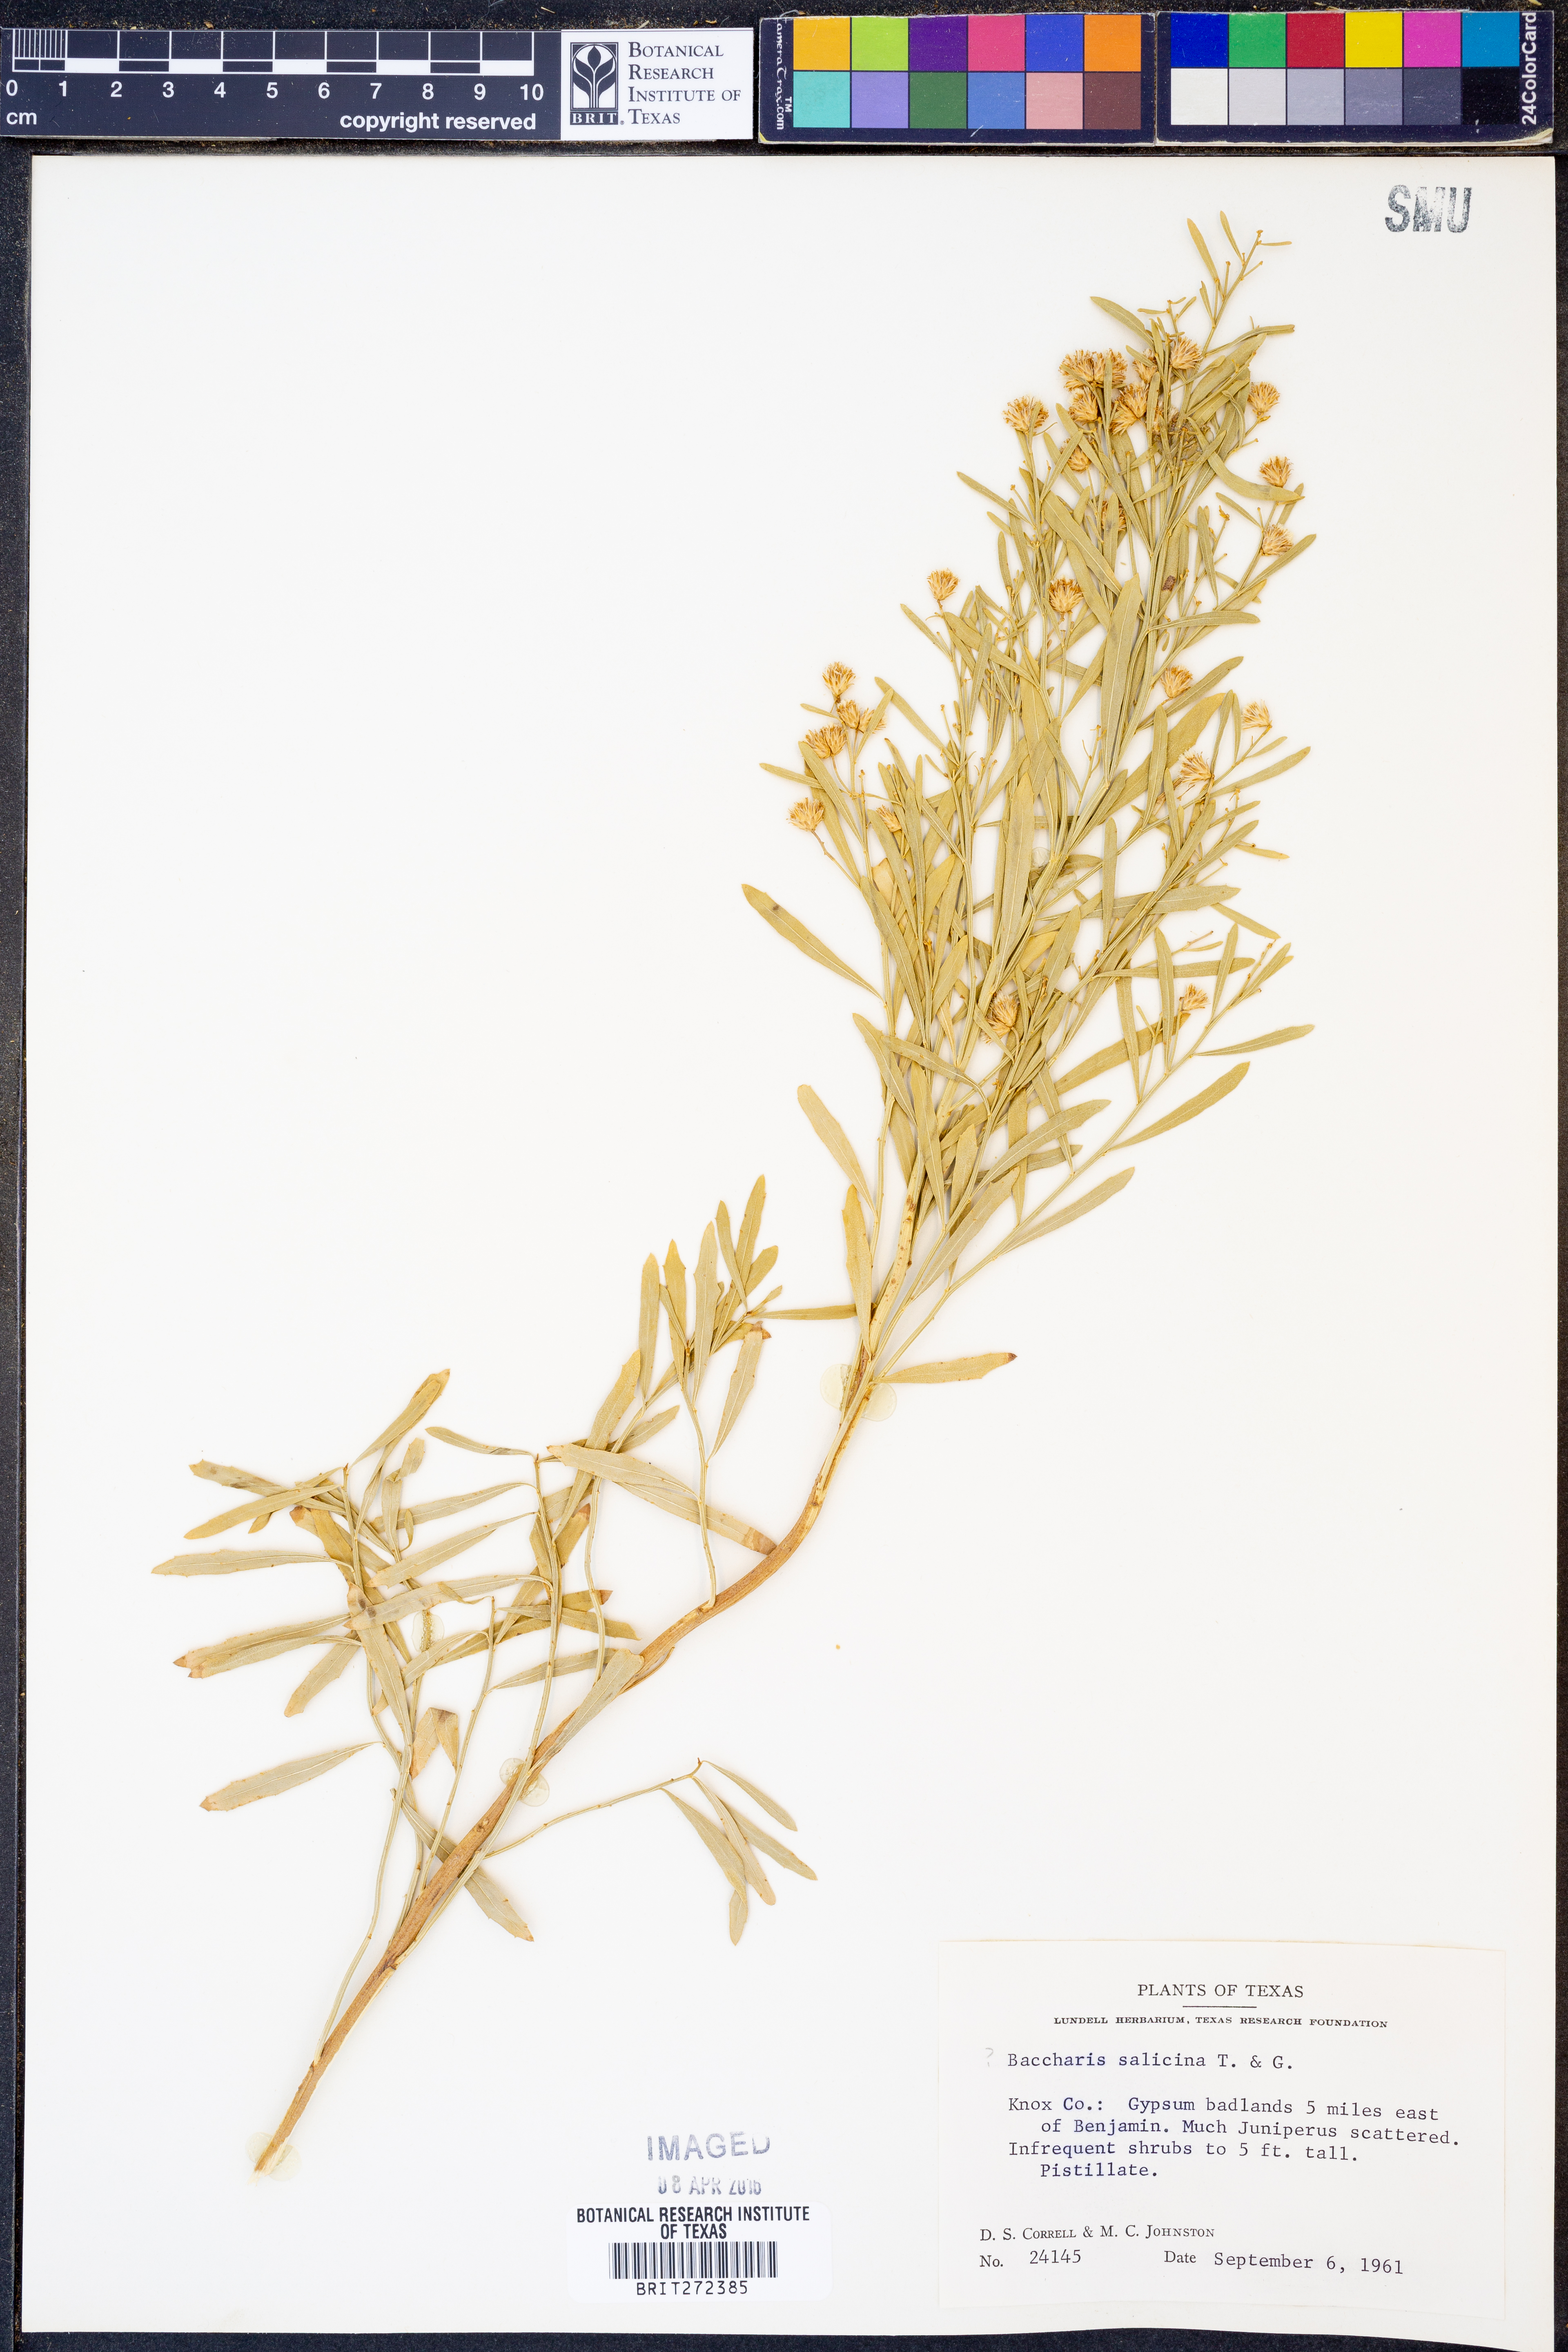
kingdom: Plantae
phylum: Tracheophyta
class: Magnoliopsida
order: Asterales
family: Asteraceae
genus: Baccharis
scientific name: Baccharis salicina
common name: Willow baccharis
